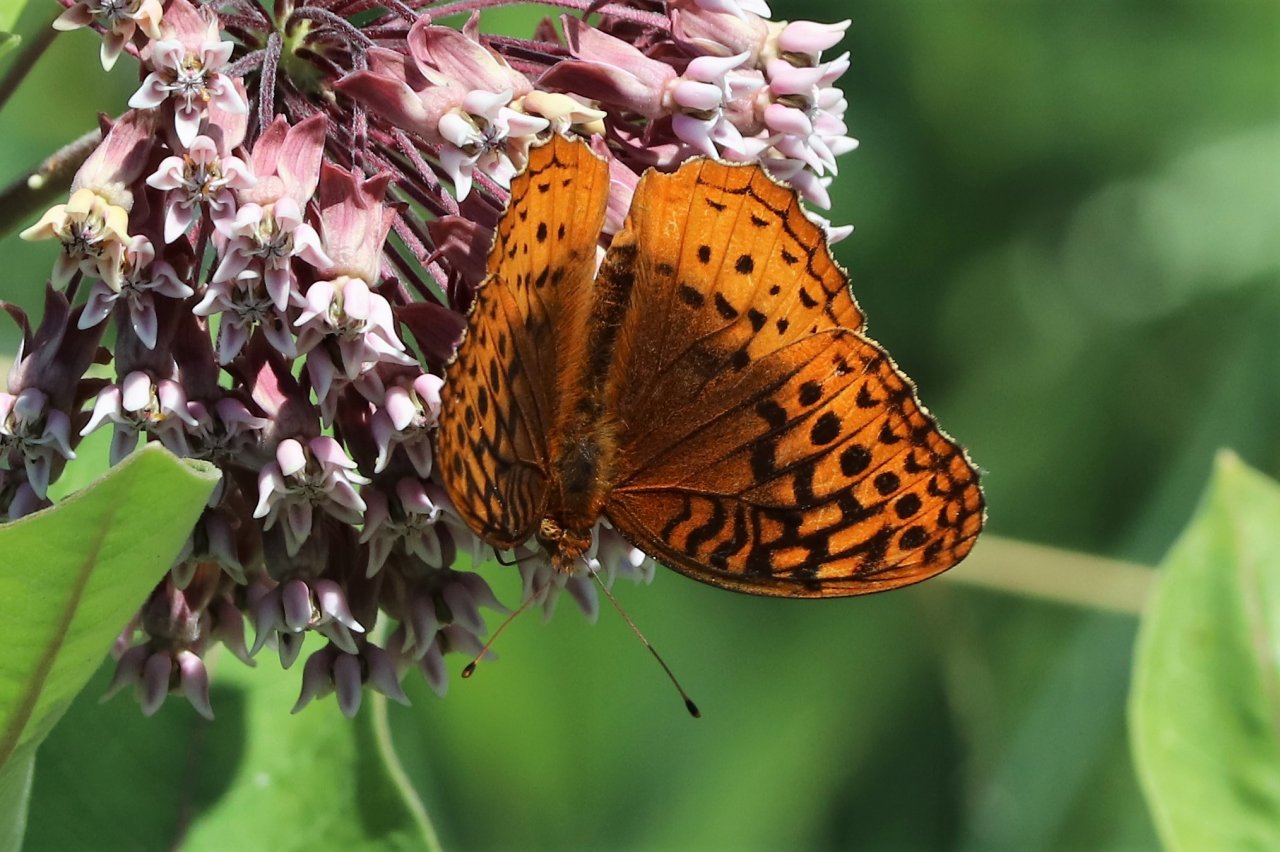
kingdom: Animalia
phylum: Arthropoda
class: Insecta
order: Lepidoptera
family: Nymphalidae
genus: Speyeria
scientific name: Speyeria cybele
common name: Great Spangled Fritillary
